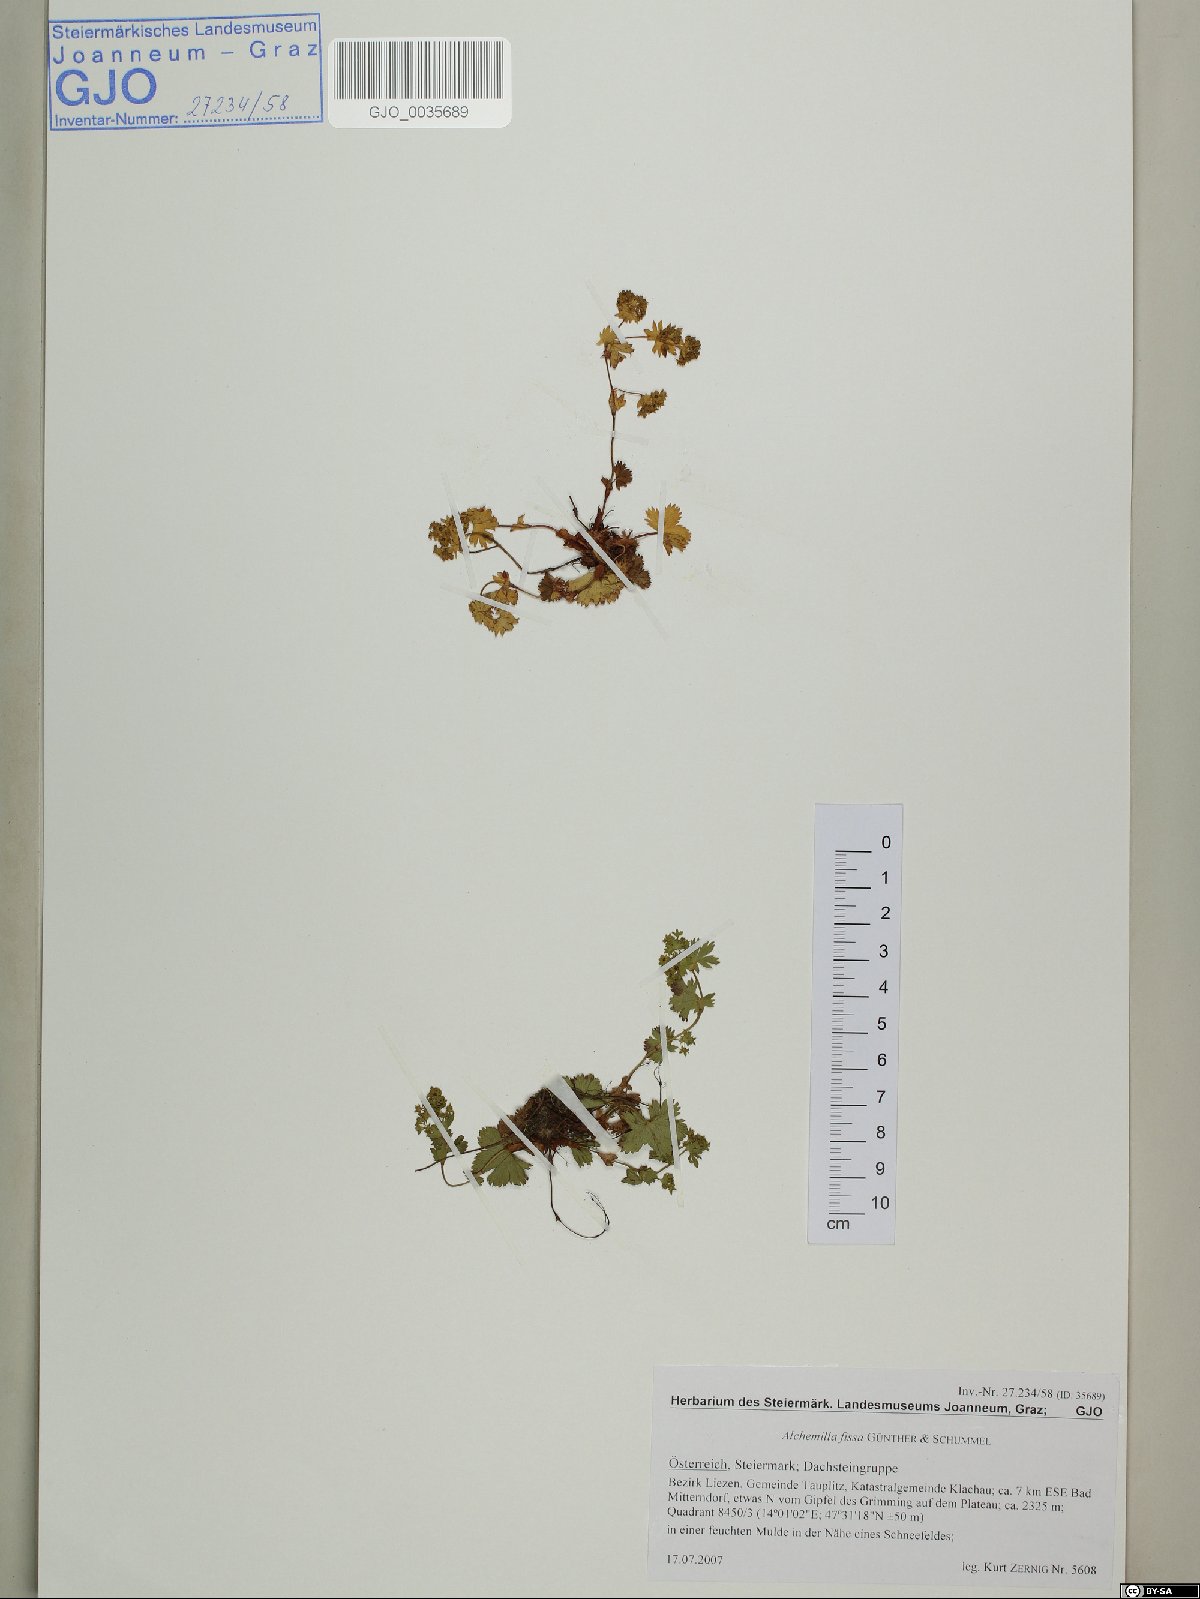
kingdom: Plantae
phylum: Tracheophyta
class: Magnoliopsida
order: Rosales
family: Rosaceae
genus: Alchemilla
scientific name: Alchemilla fissa
